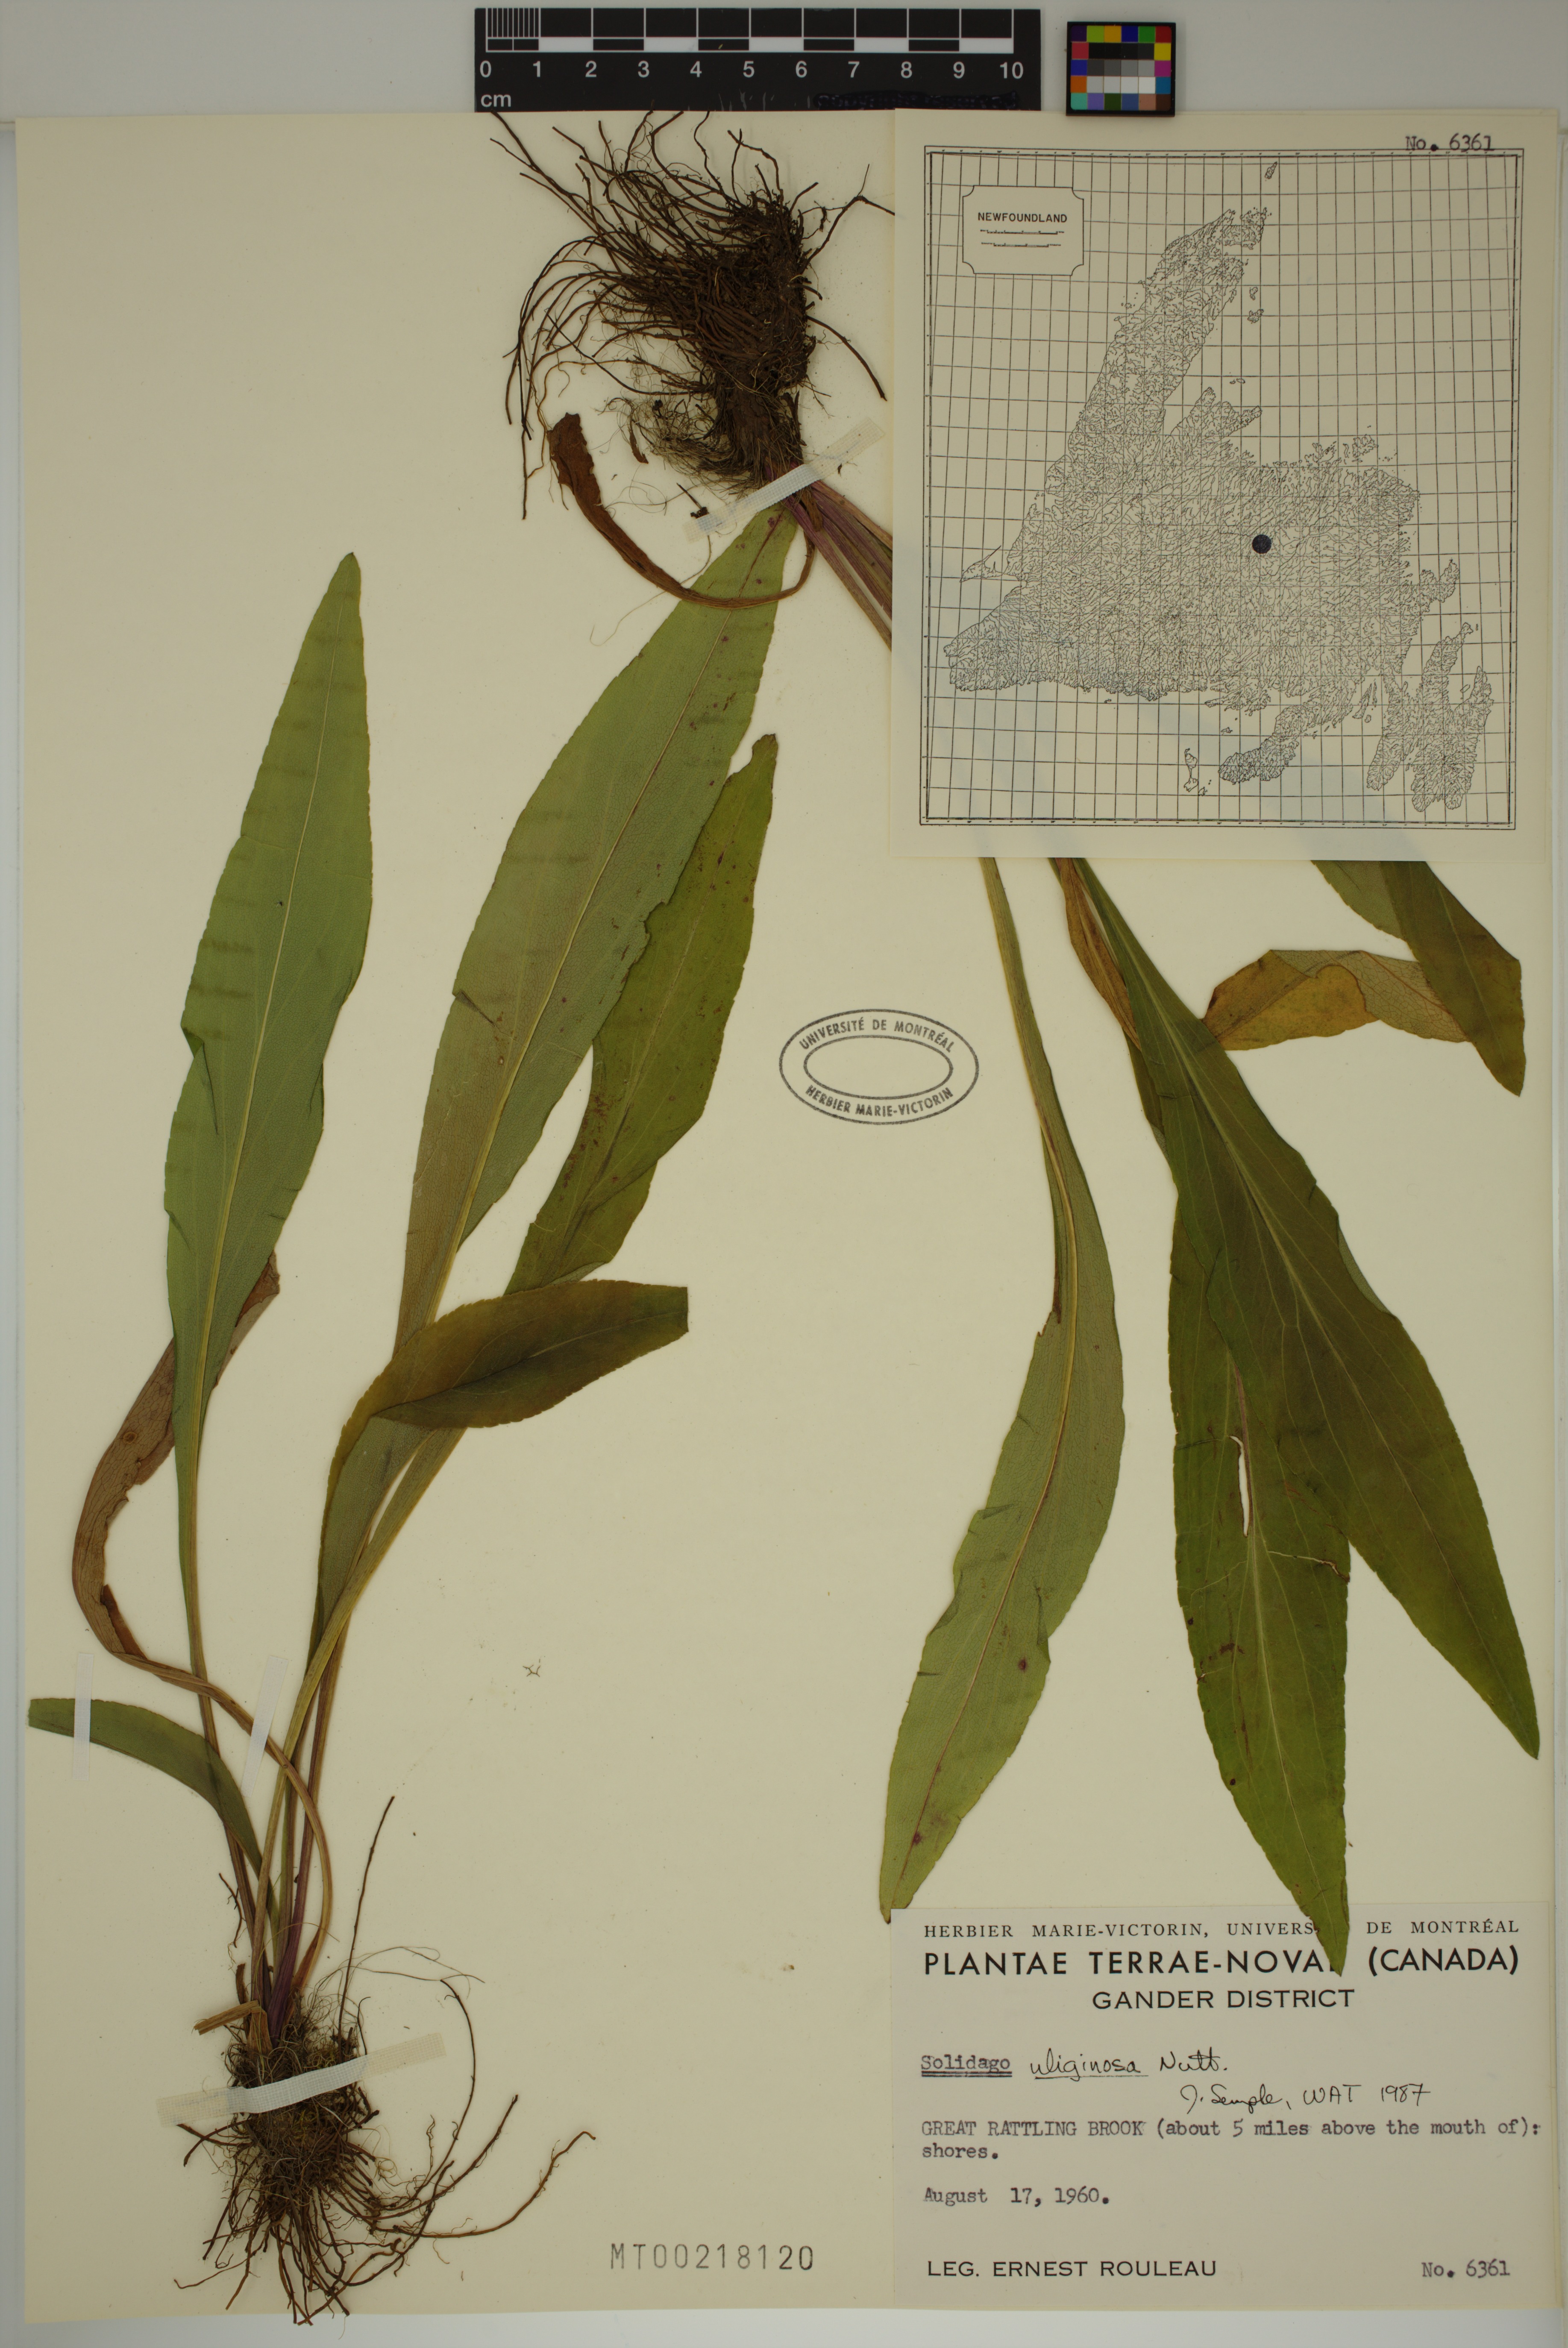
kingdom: Plantae
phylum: Tracheophyta
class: Magnoliopsida
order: Asterales
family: Asteraceae
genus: Solidago
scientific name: Solidago uliginosa
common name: Bog goldenrod
